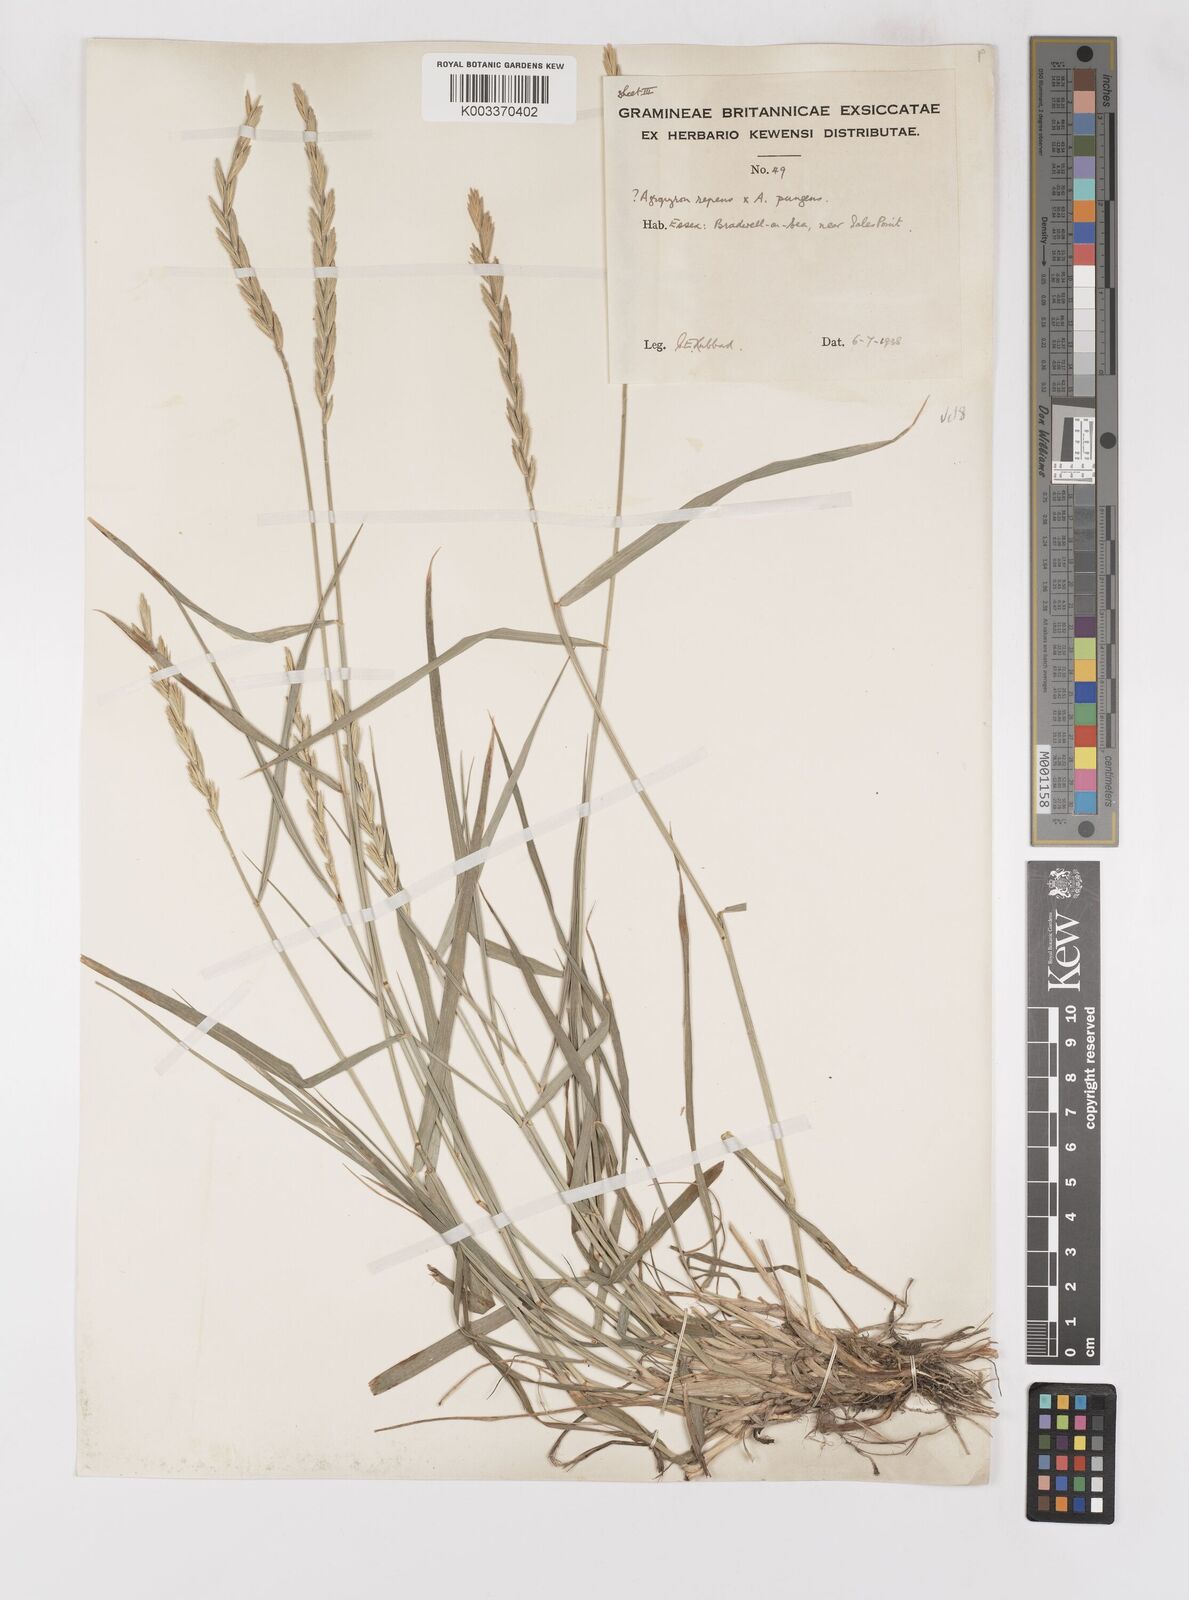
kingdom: Plantae
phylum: Tracheophyta
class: Liliopsida
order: Poales
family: Poaceae
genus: Elymus
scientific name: Elymus oliveri
